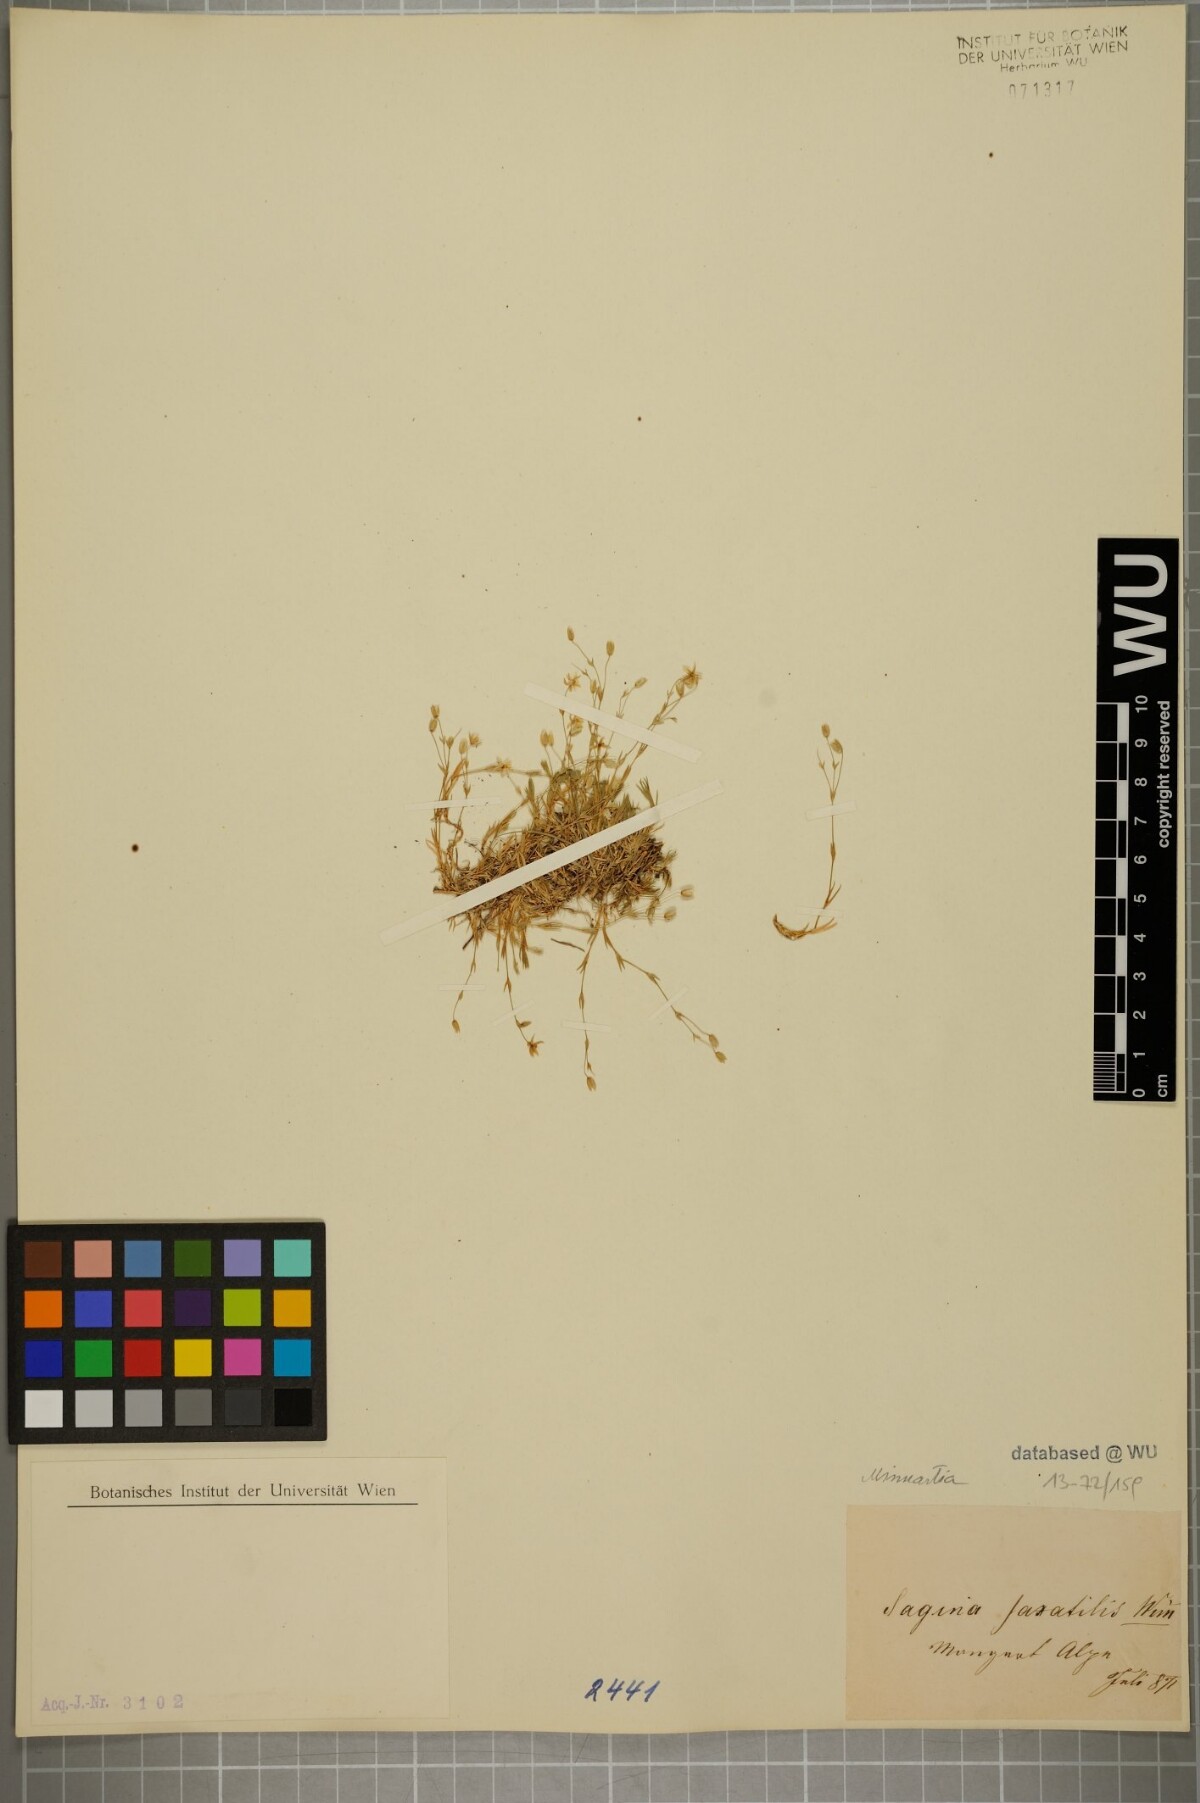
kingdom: Plantae
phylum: Tracheophyta
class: Magnoliopsida
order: Caryophyllales
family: Caryophyllaceae
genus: Sabulina
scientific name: Sabulina verna
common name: Spring sandwort
